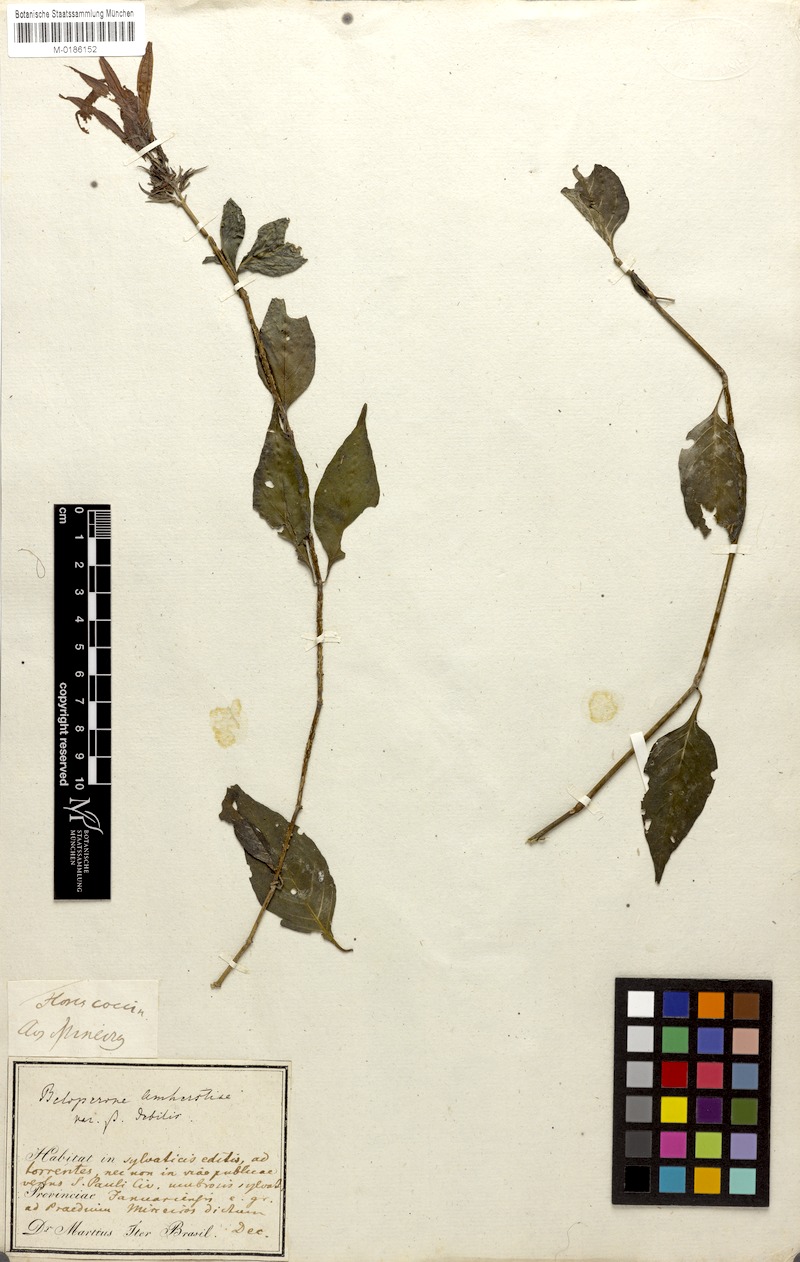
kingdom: Plantae
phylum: Tracheophyta
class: Magnoliopsida
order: Lamiales
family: Acanthaceae
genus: Justicia
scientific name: Justicia brasiliana
